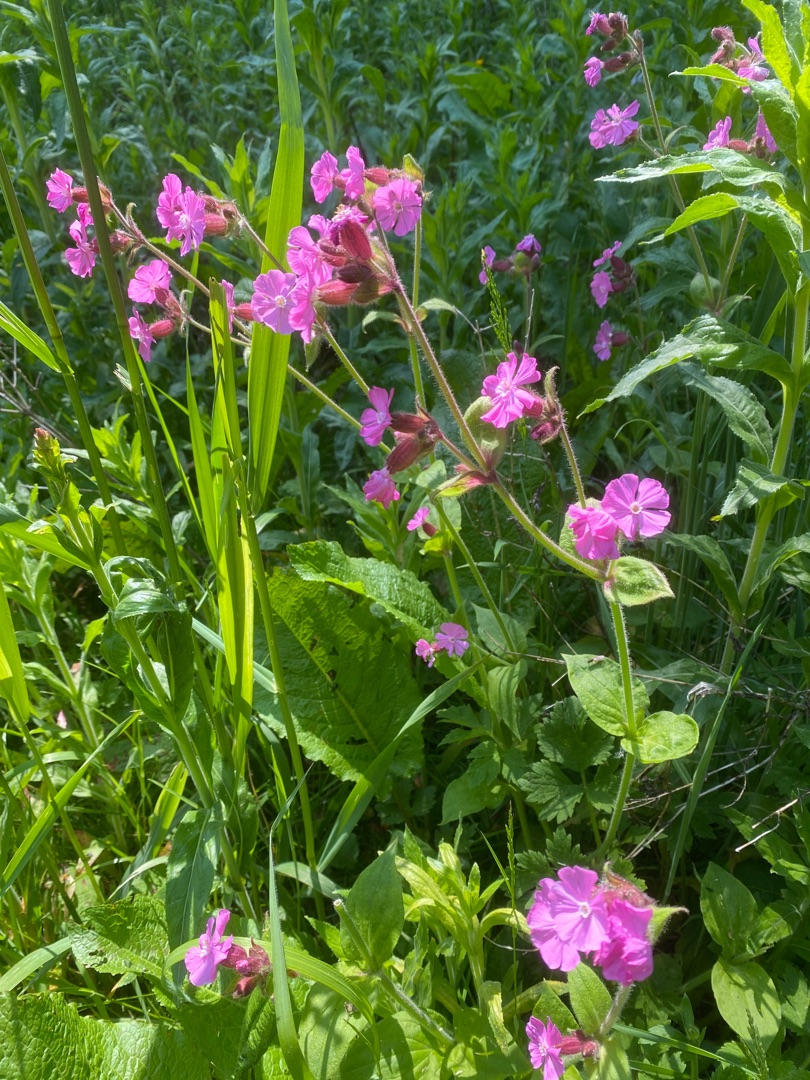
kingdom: Plantae
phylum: Tracheophyta
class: Magnoliopsida
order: Caryophyllales
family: Caryophyllaceae
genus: Silene
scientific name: Silene dioica
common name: Dagpragtstjerne
